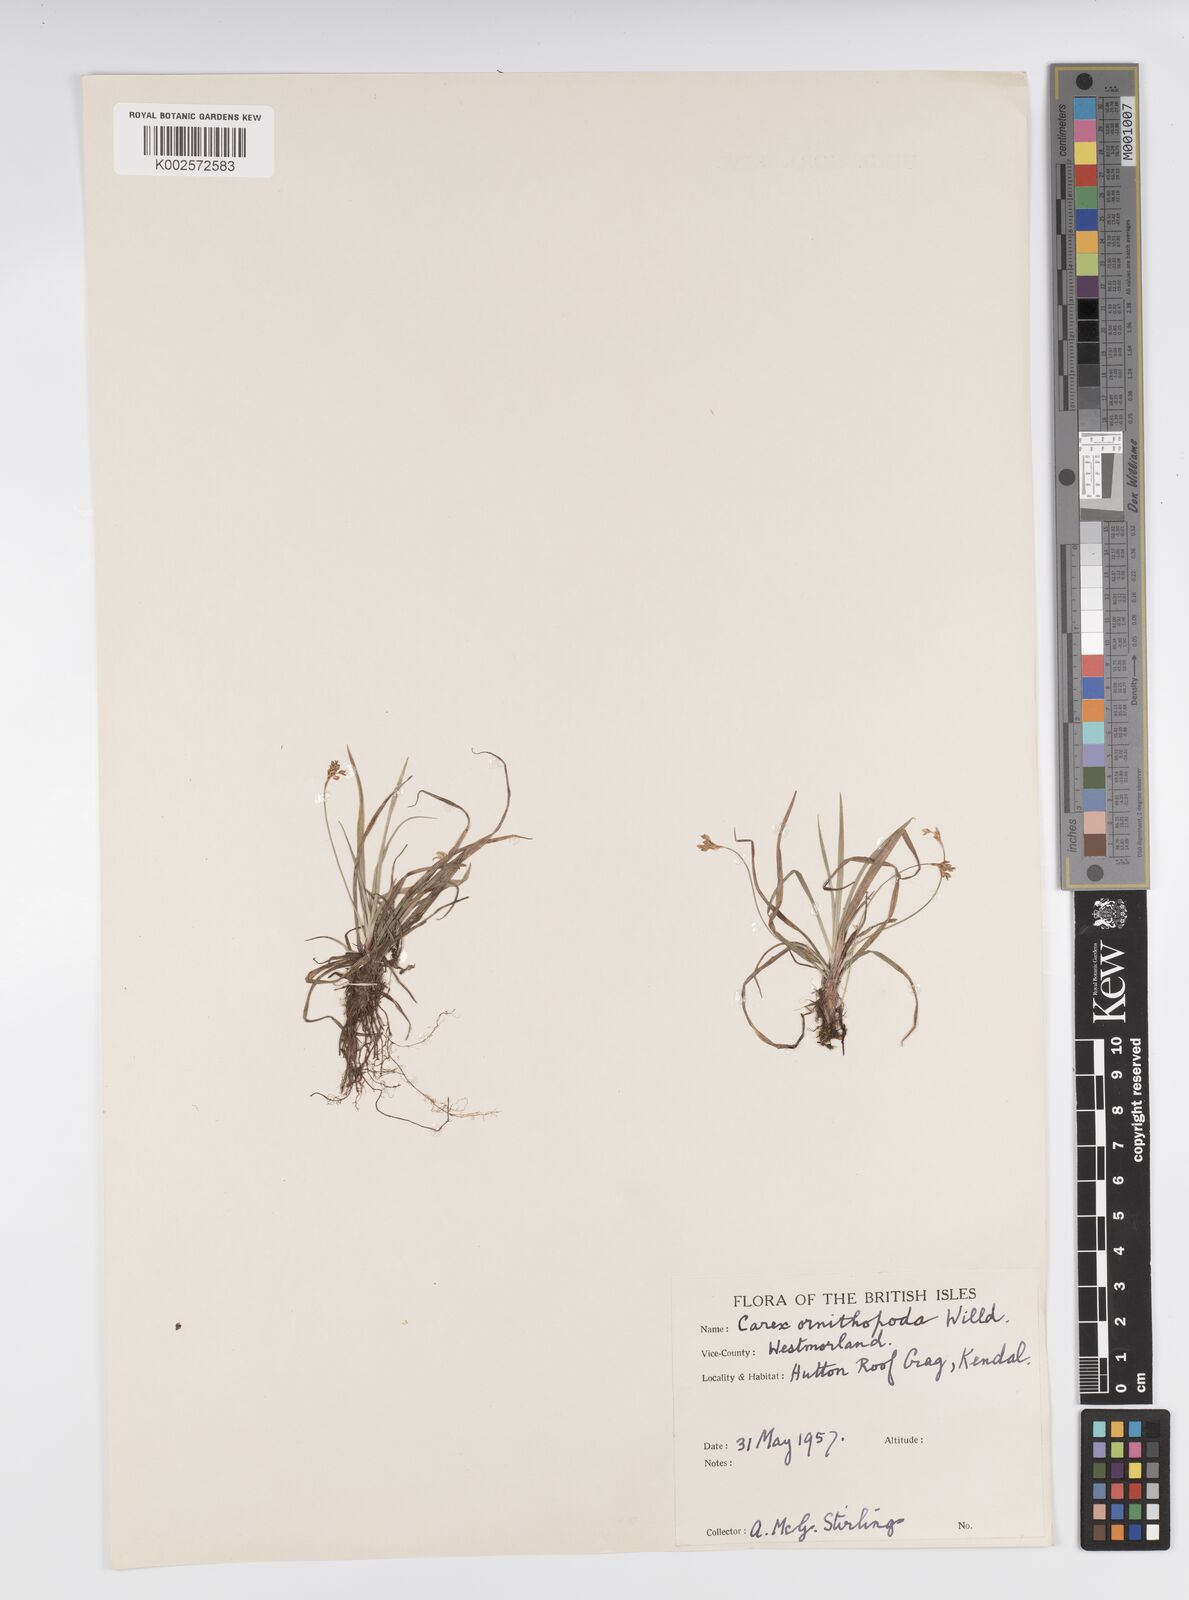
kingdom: Plantae
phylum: Tracheophyta
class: Liliopsida
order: Poales
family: Cyperaceae
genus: Carex
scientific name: Carex ornithopoda
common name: Bird's-foot sedge
